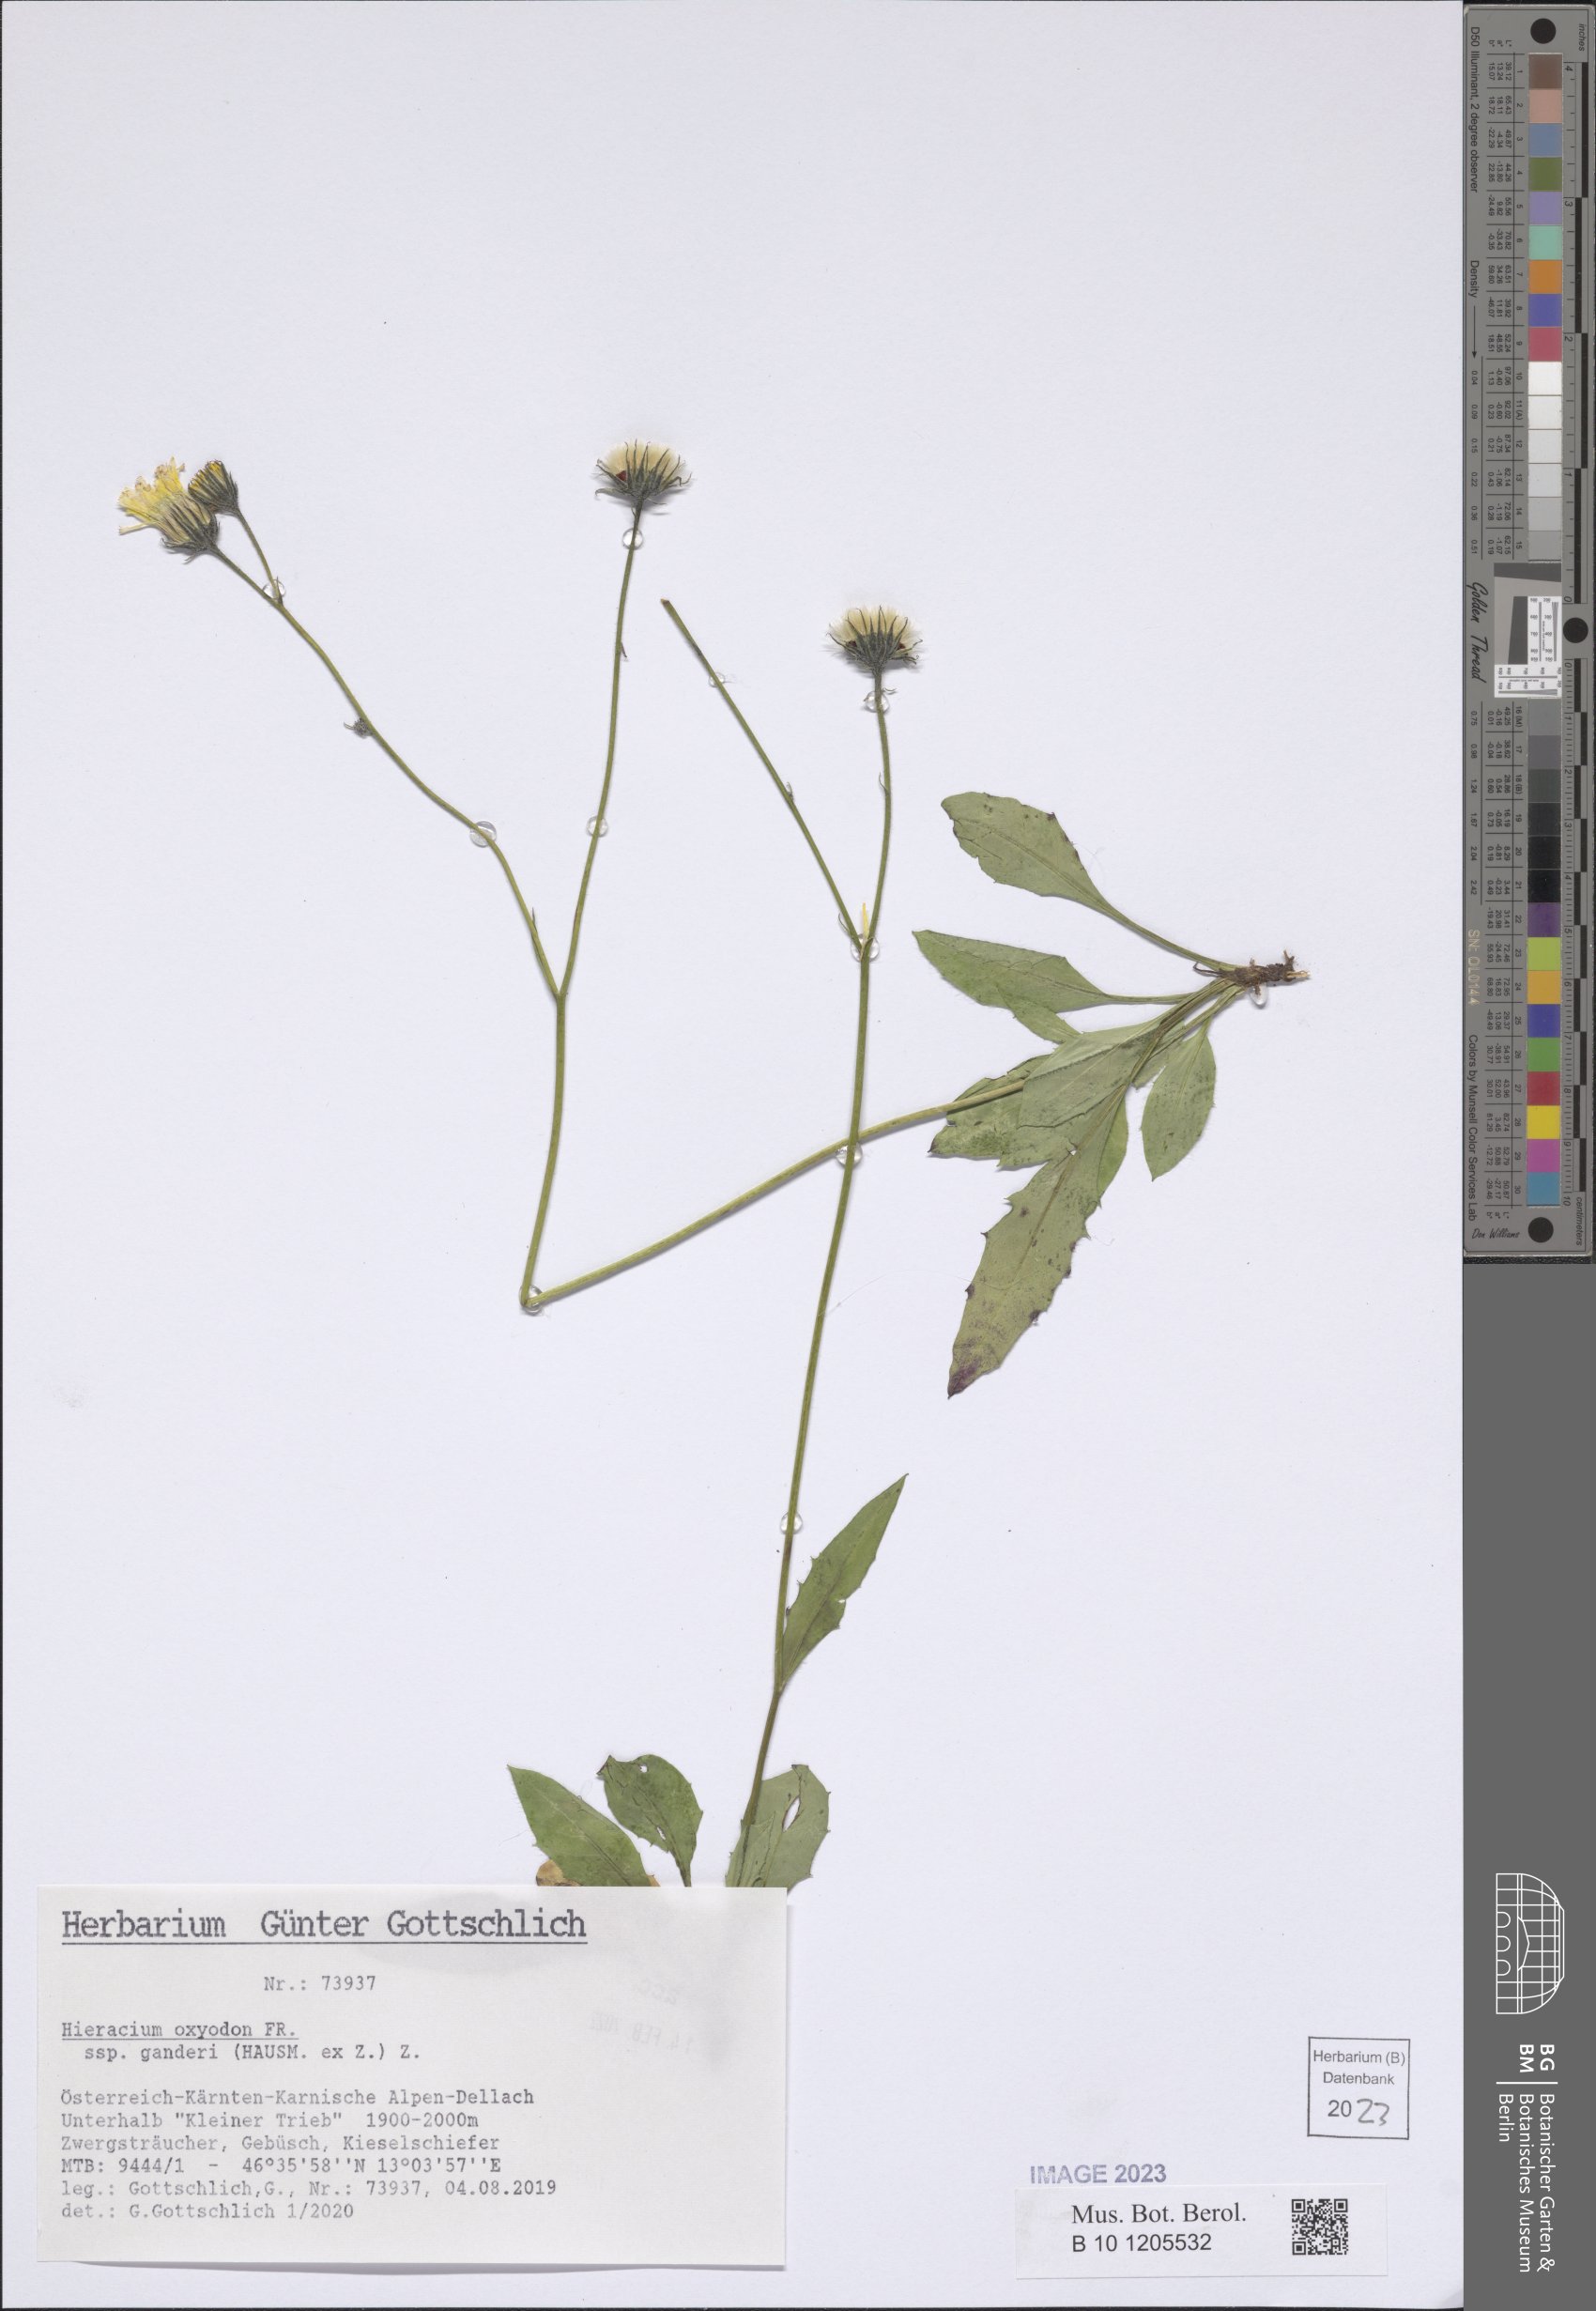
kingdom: Plantae
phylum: Tracheophyta
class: Magnoliopsida
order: Asterales
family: Asteraceae
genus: Hieracium
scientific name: Hieracium oxyodon
